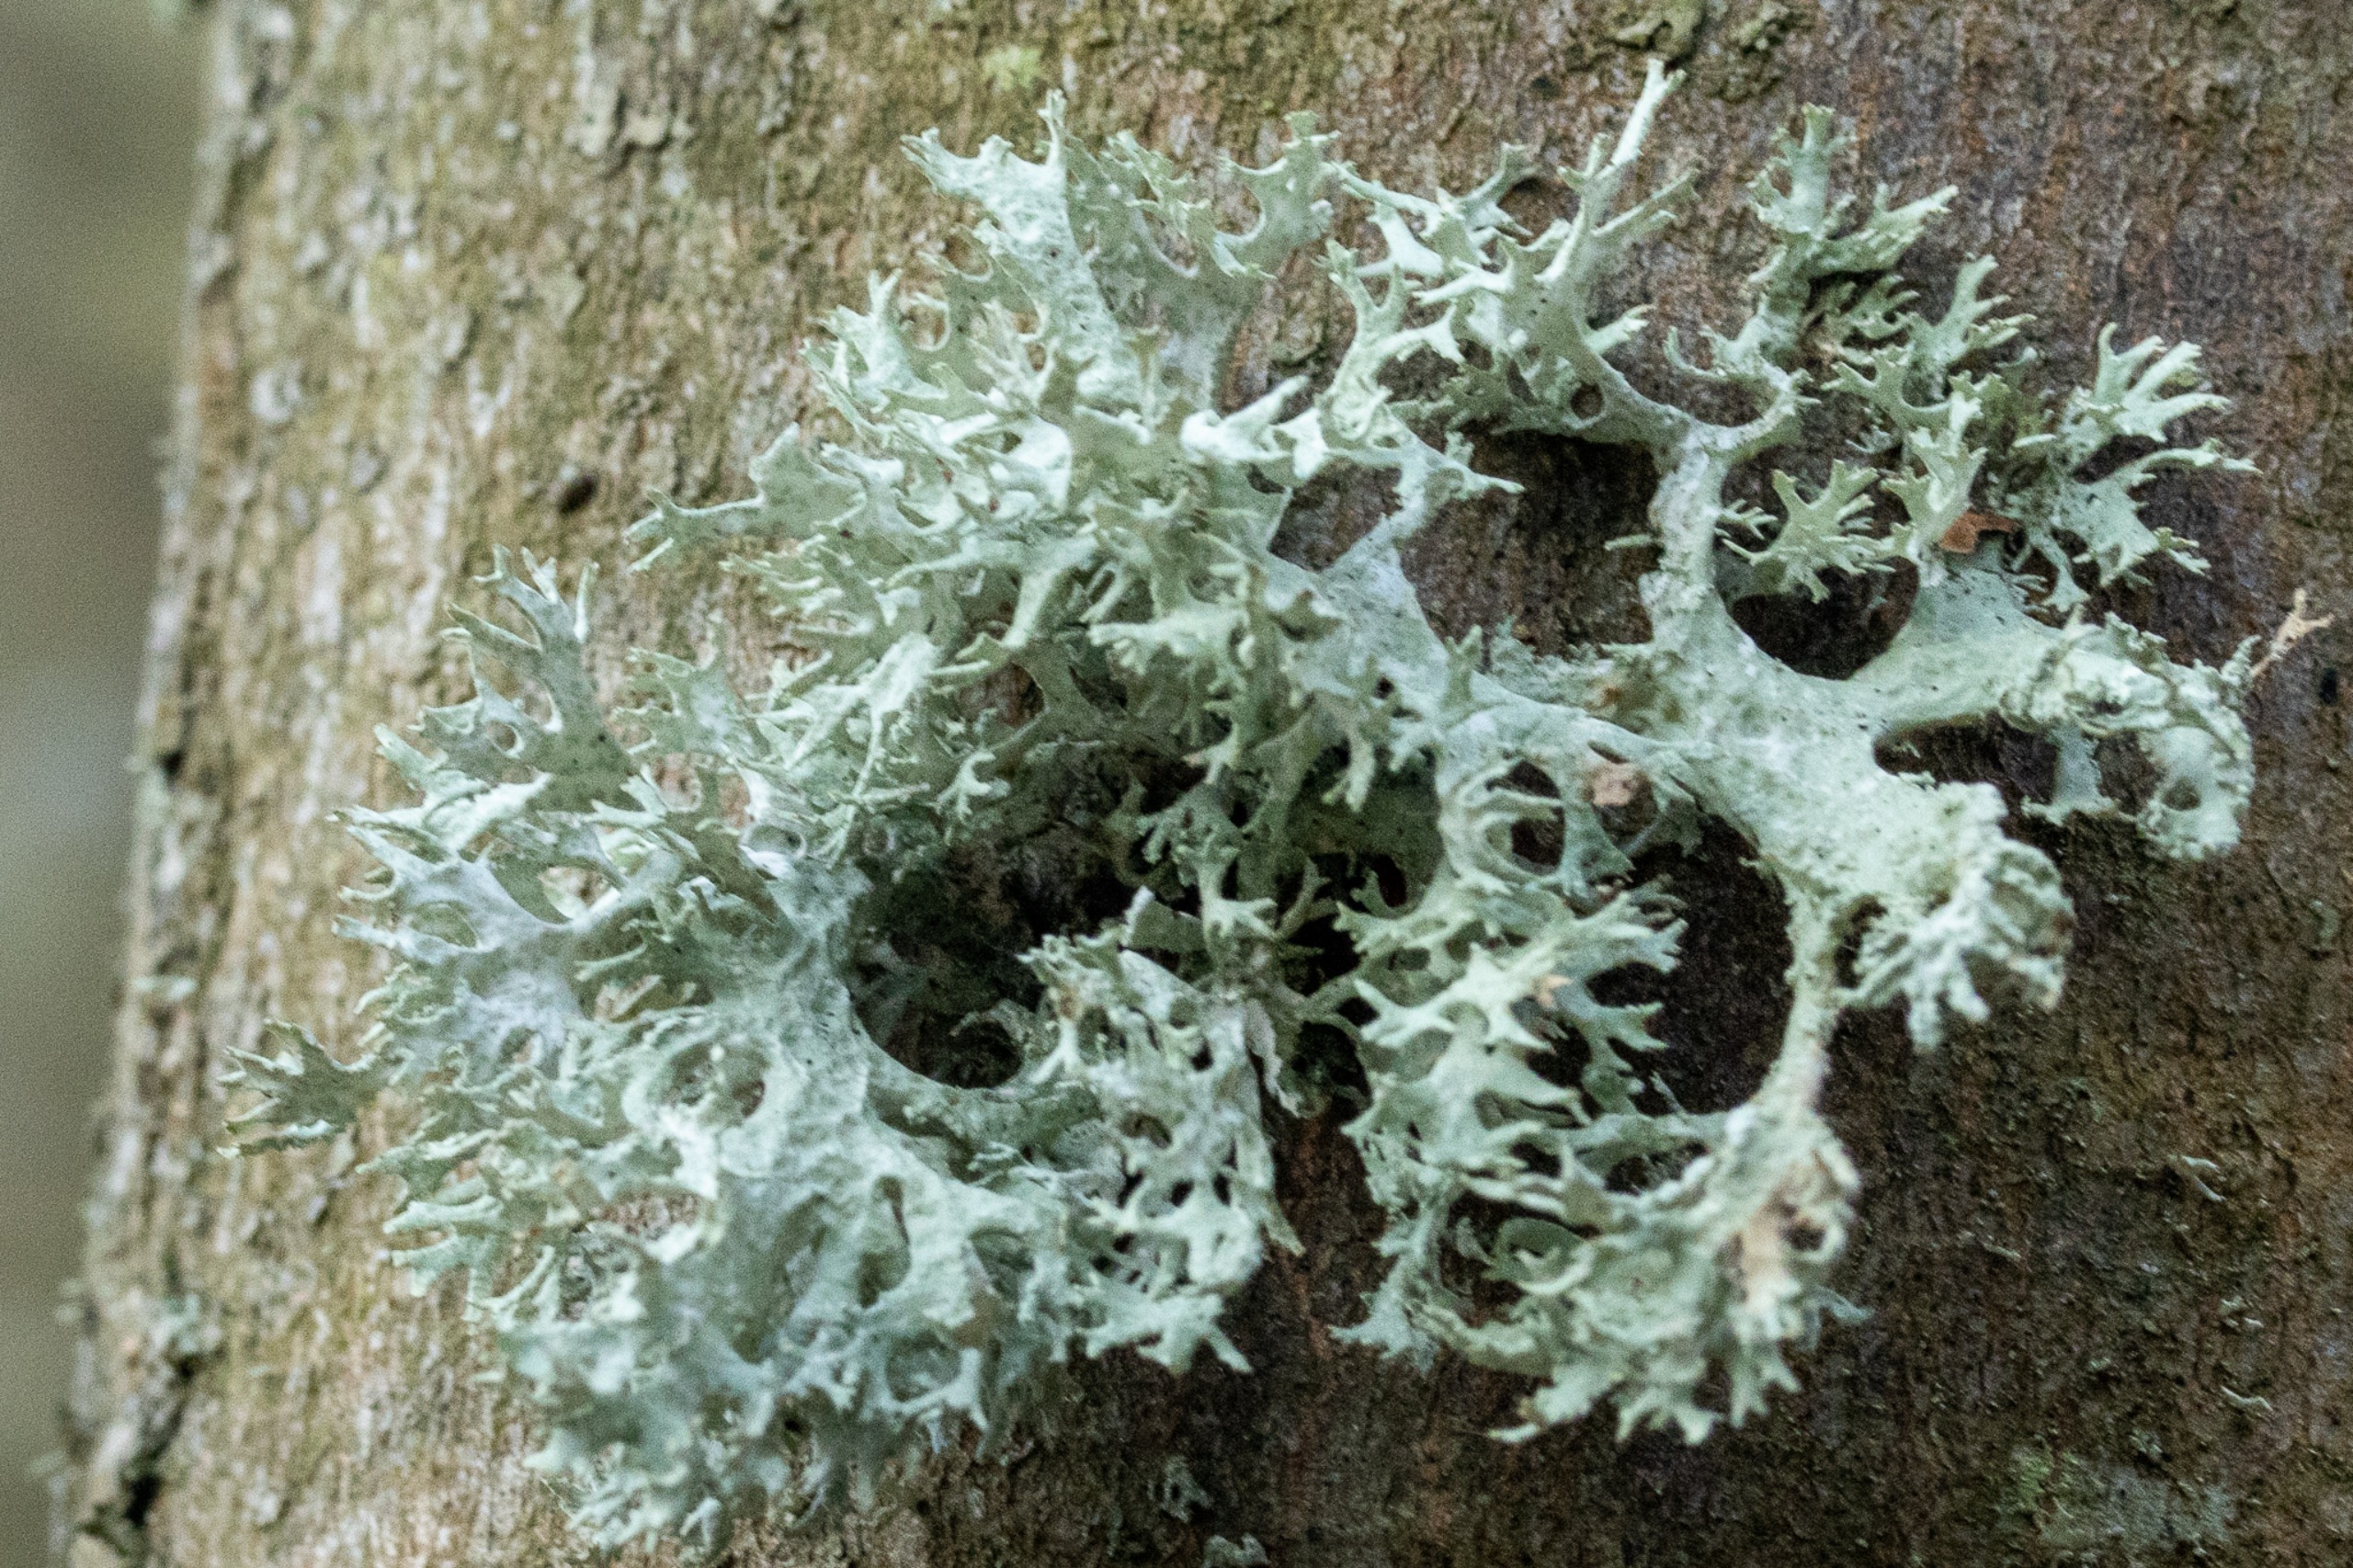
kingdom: Fungi
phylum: Ascomycota
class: Lecanoromycetes
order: Lecanorales
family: Parmeliaceae
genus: Evernia
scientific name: Evernia prunastri
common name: Almindelig slåenlav
